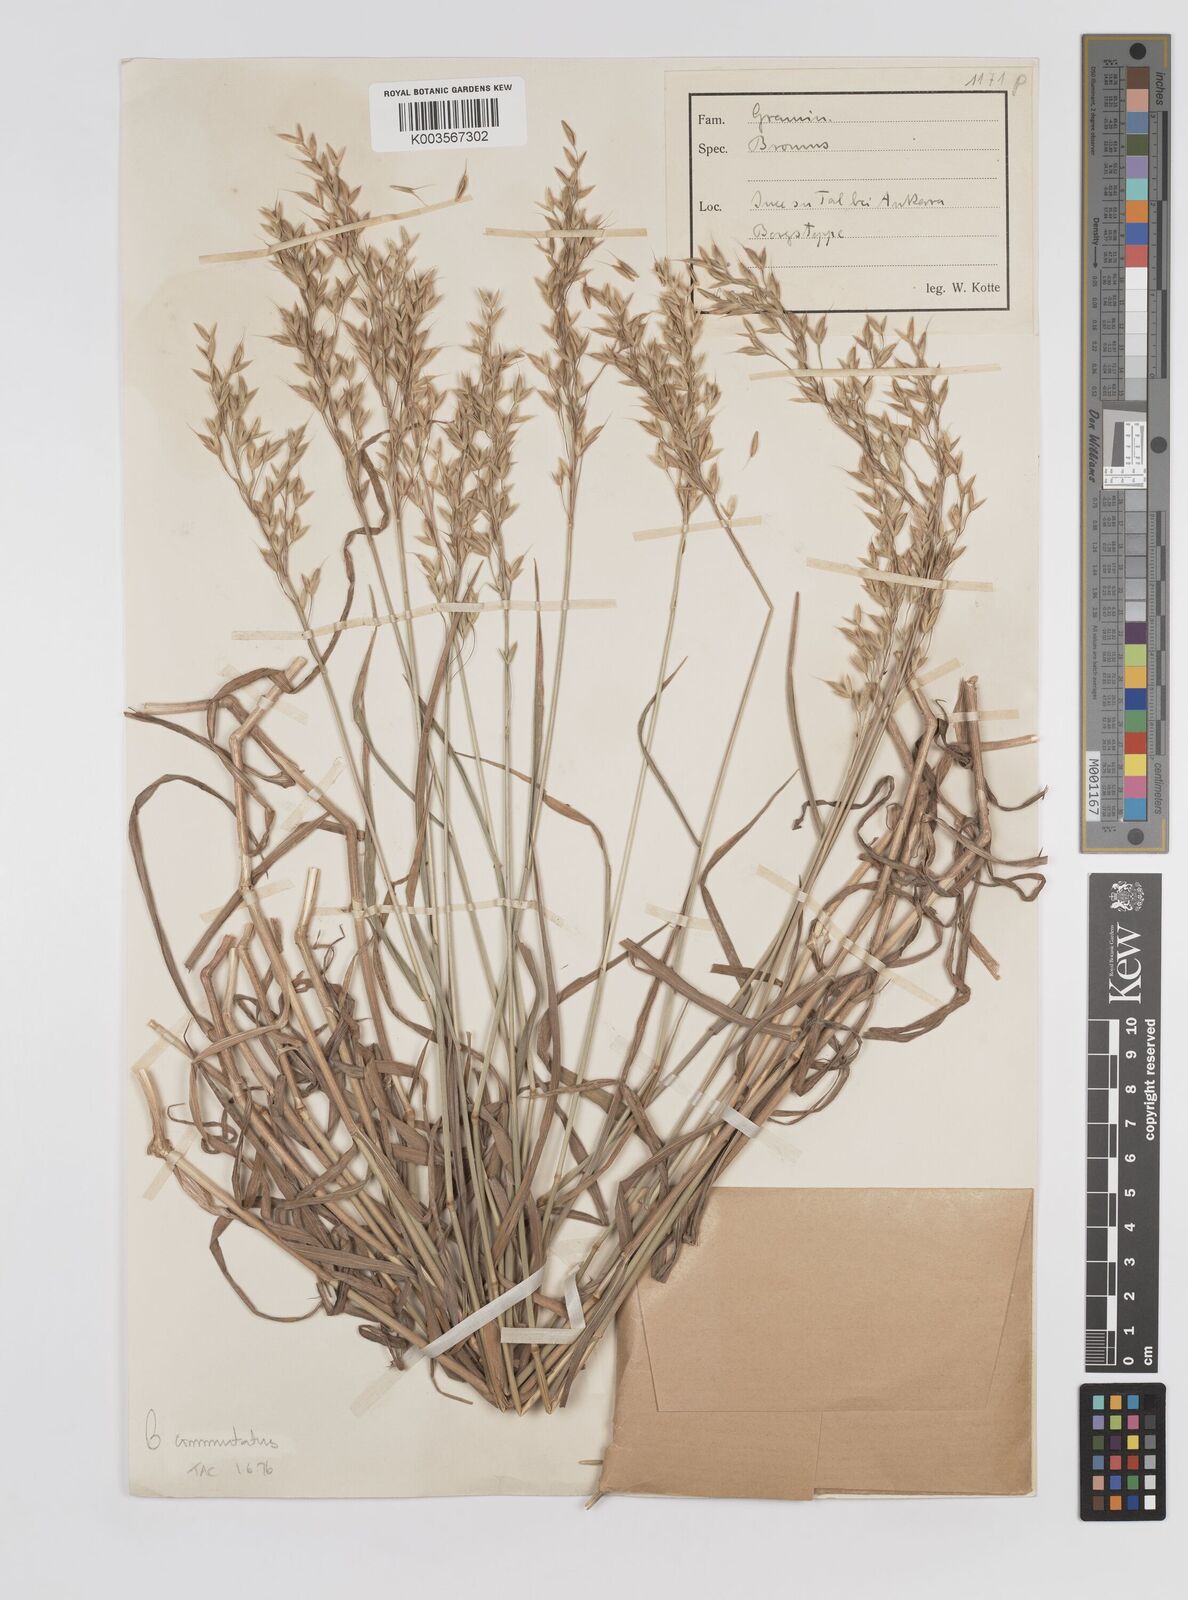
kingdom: Plantae
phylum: Tracheophyta
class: Liliopsida
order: Poales
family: Poaceae
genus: Bromus
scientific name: Bromus racemosus
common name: Bald brome
